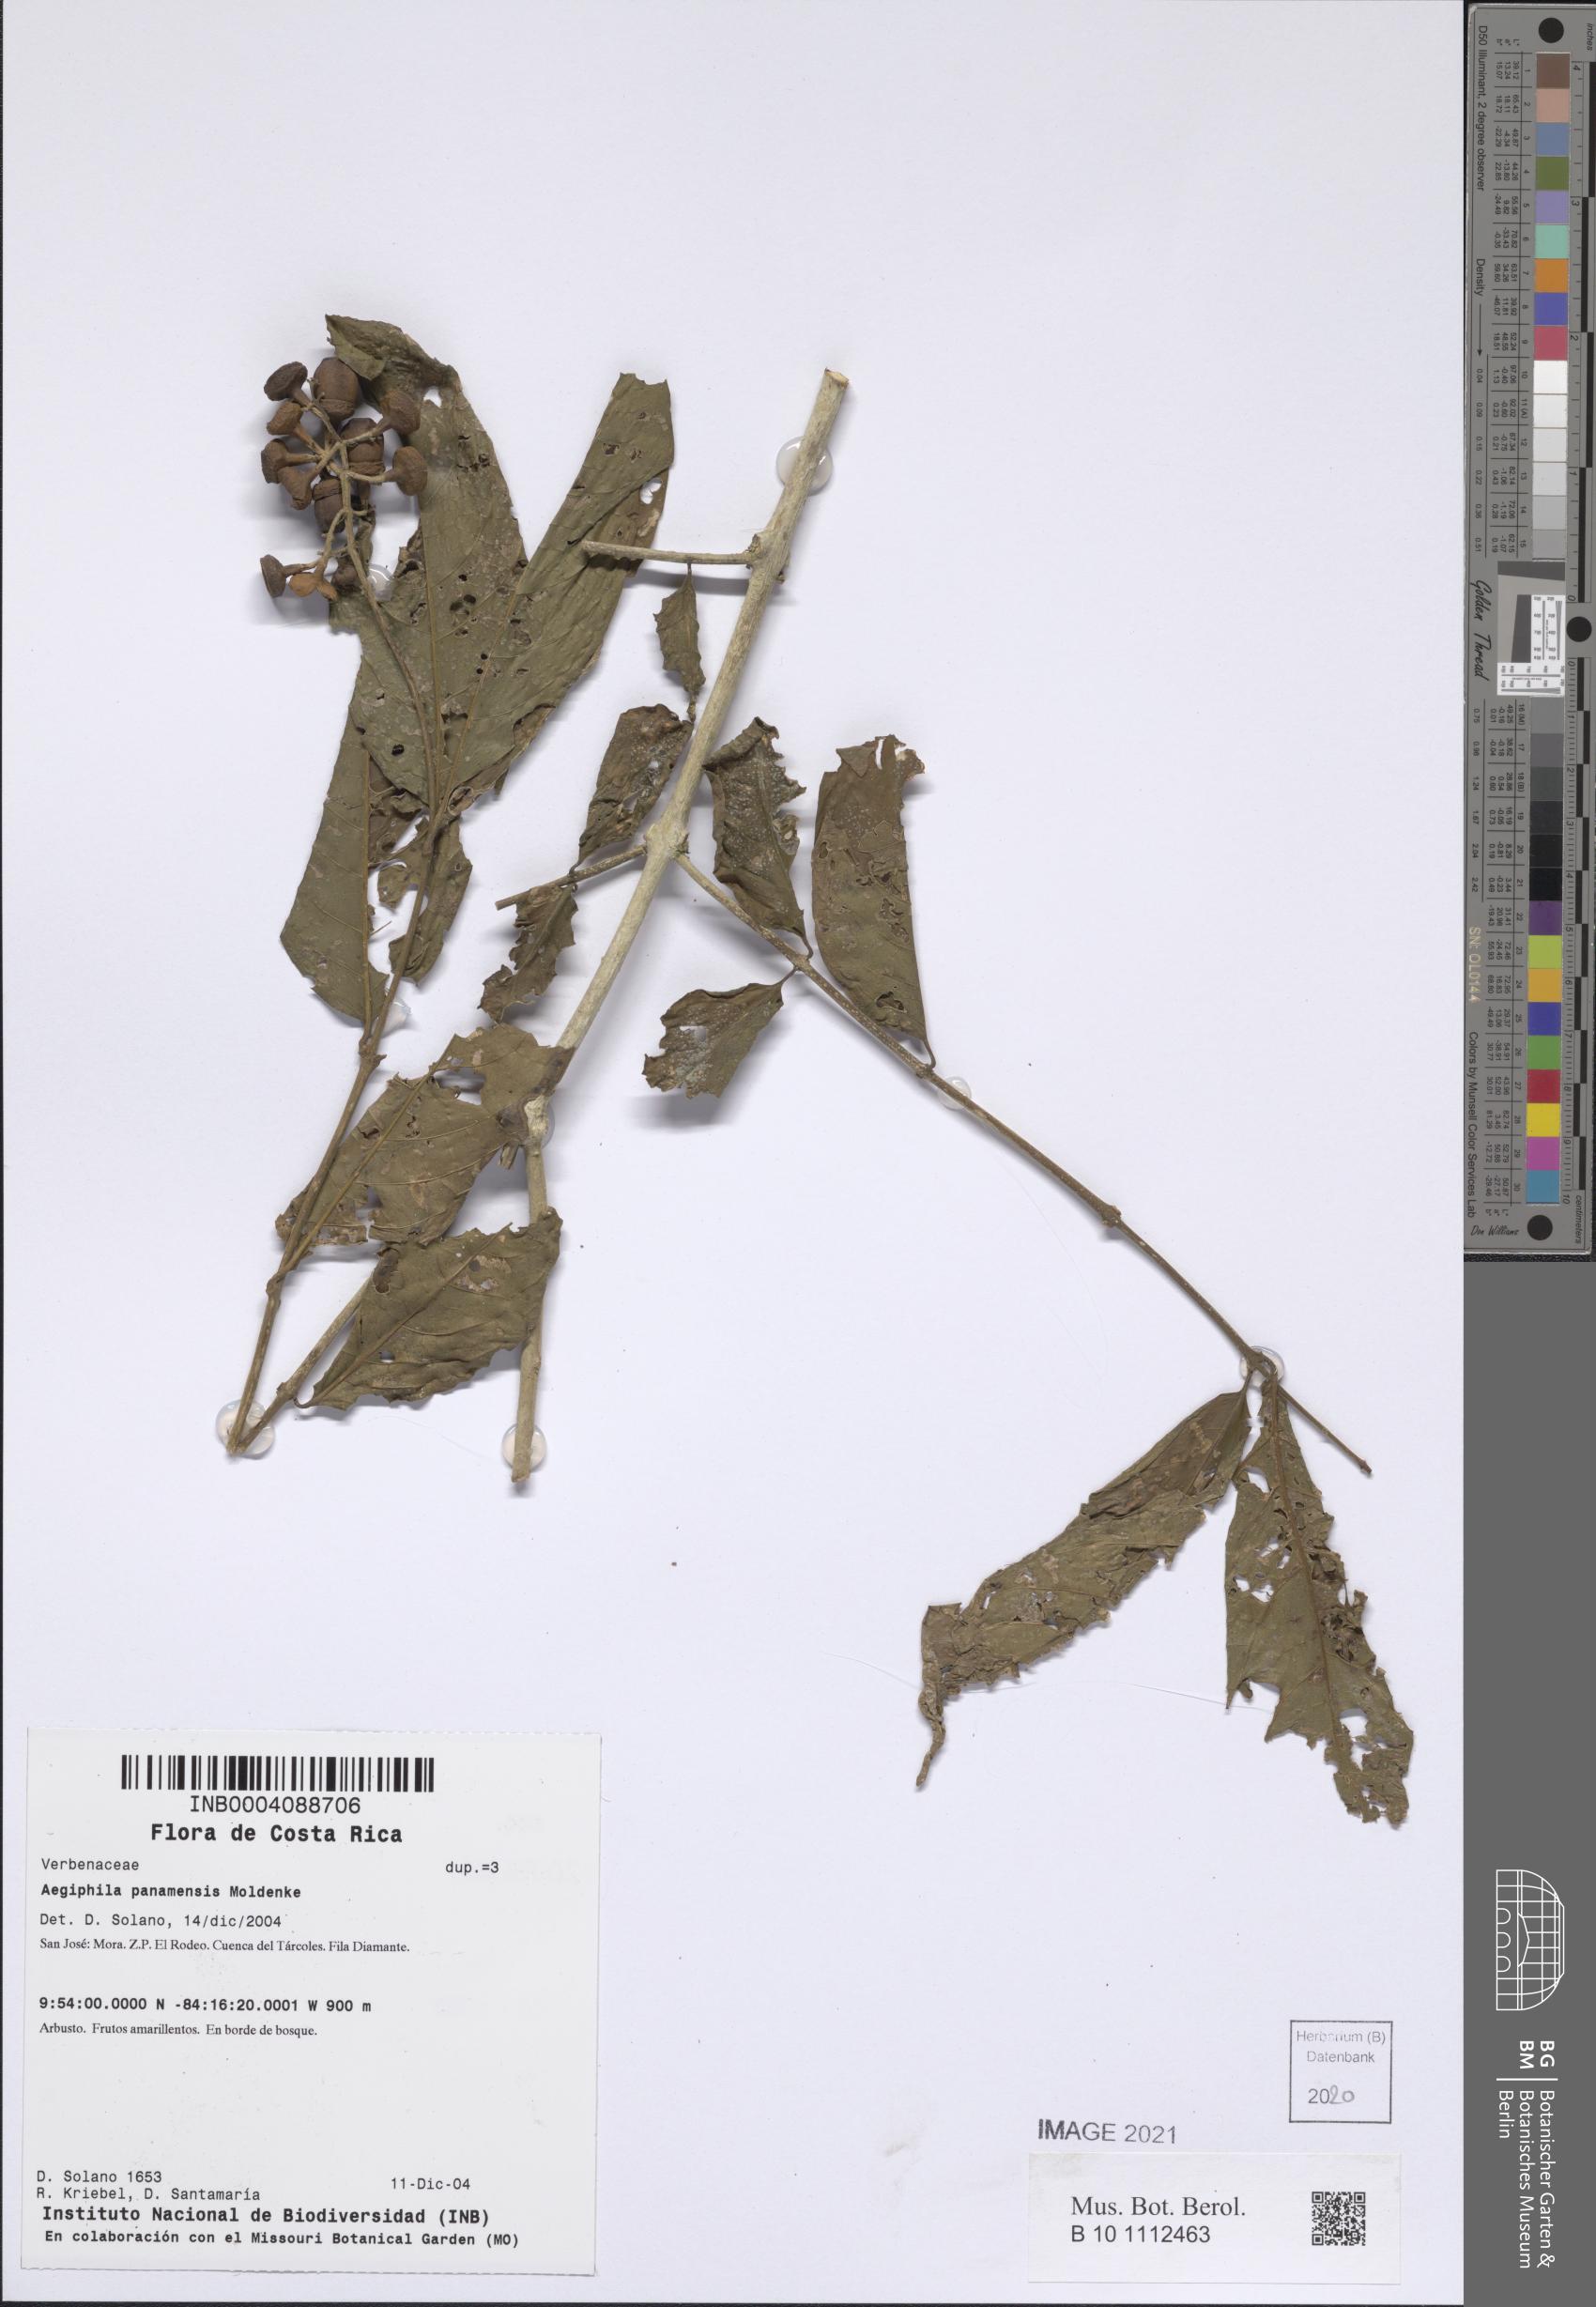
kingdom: Plantae
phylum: Tracheophyta
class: Magnoliopsida
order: Lamiales
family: Lamiaceae
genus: Aegiphila
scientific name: Aegiphila panamensis
